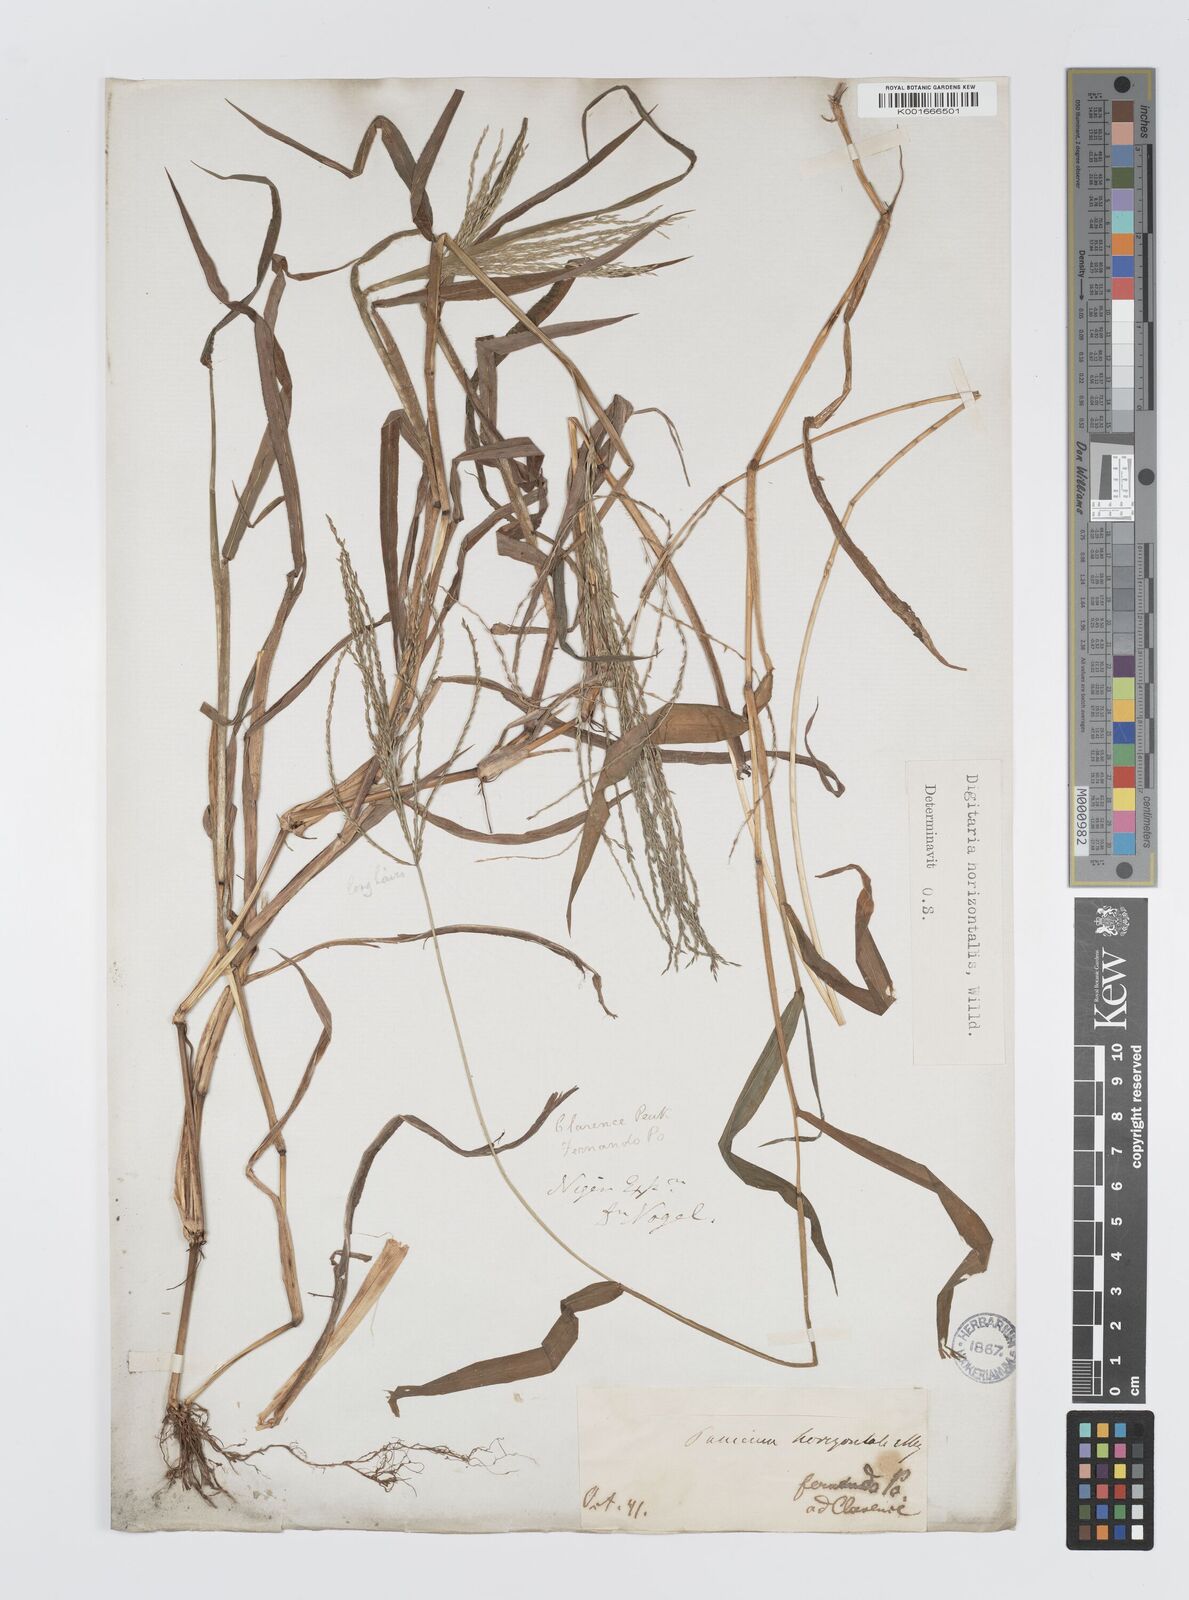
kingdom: Plantae
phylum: Tracheophyta
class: Liliopsida
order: Poales
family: Poaceae
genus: Digitaria
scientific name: Digitaria horizontalis
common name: Jamaican crabgrass
